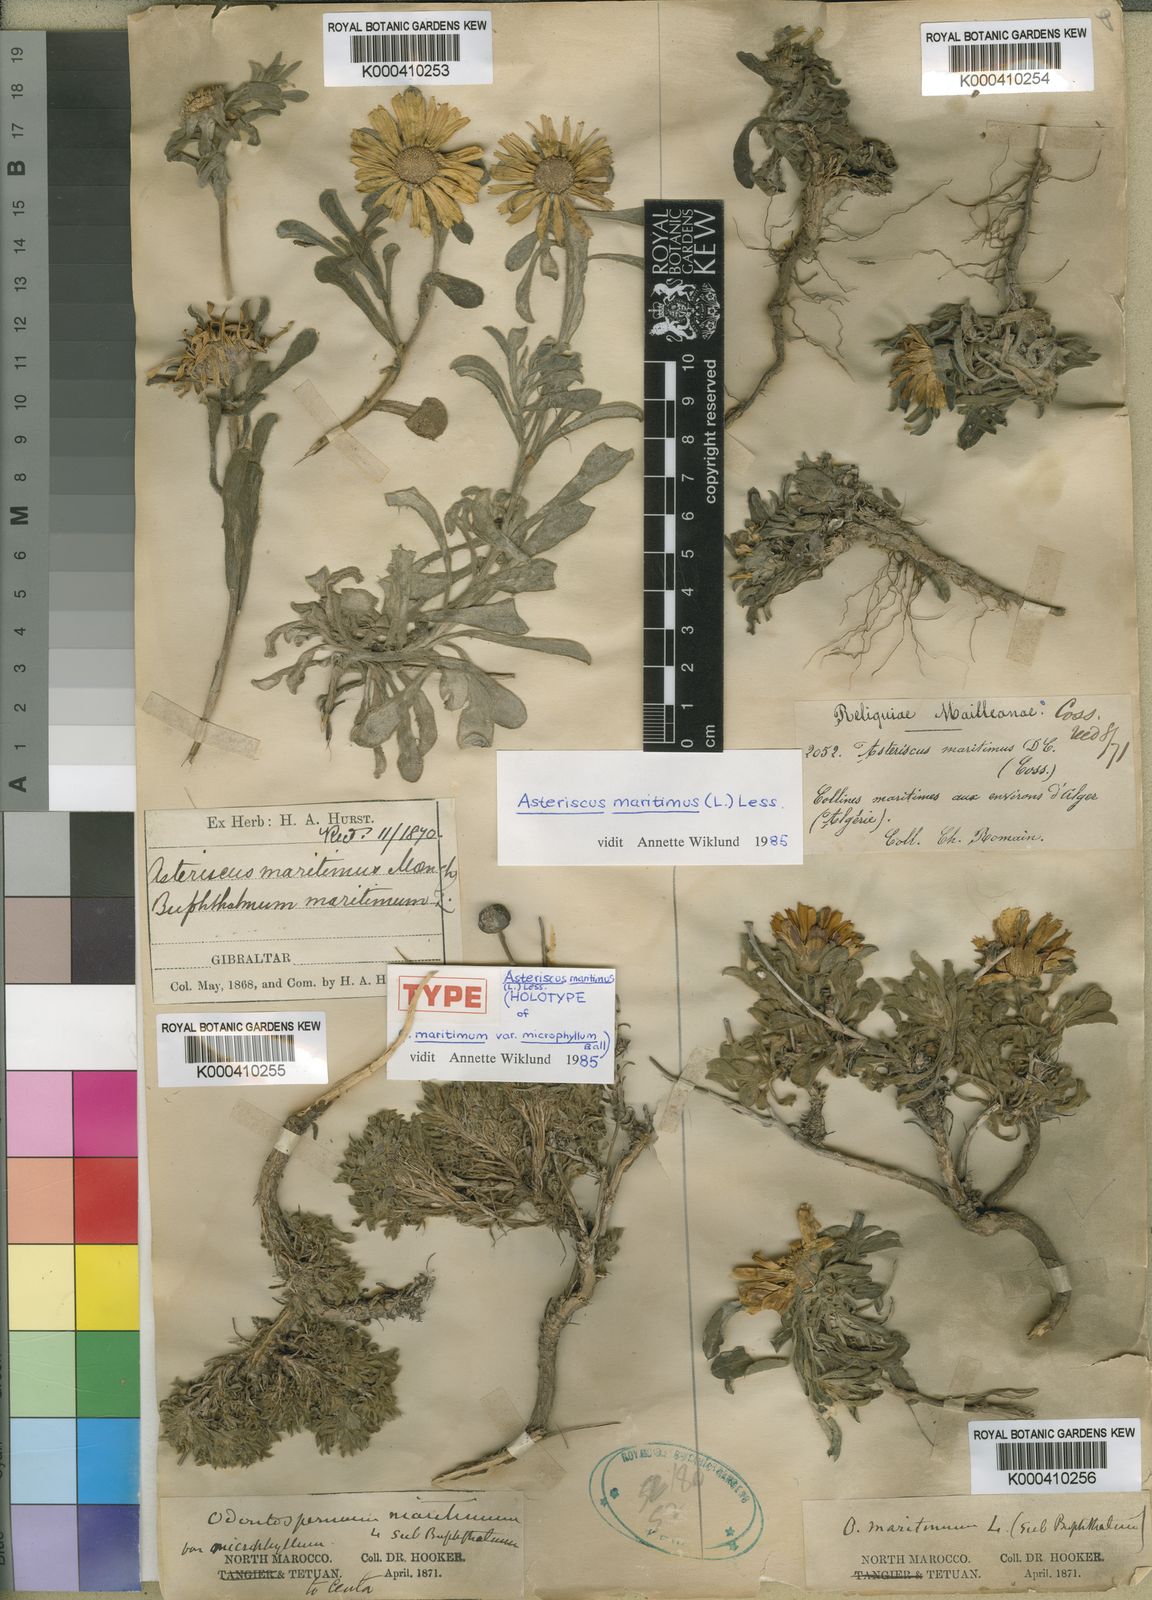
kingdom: Plantae
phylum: Tracheophyta
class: Magnoliopsida
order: Asterales
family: Asteraceae
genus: Pallenis
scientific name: Pallenis maritima
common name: Golden coin daisy
